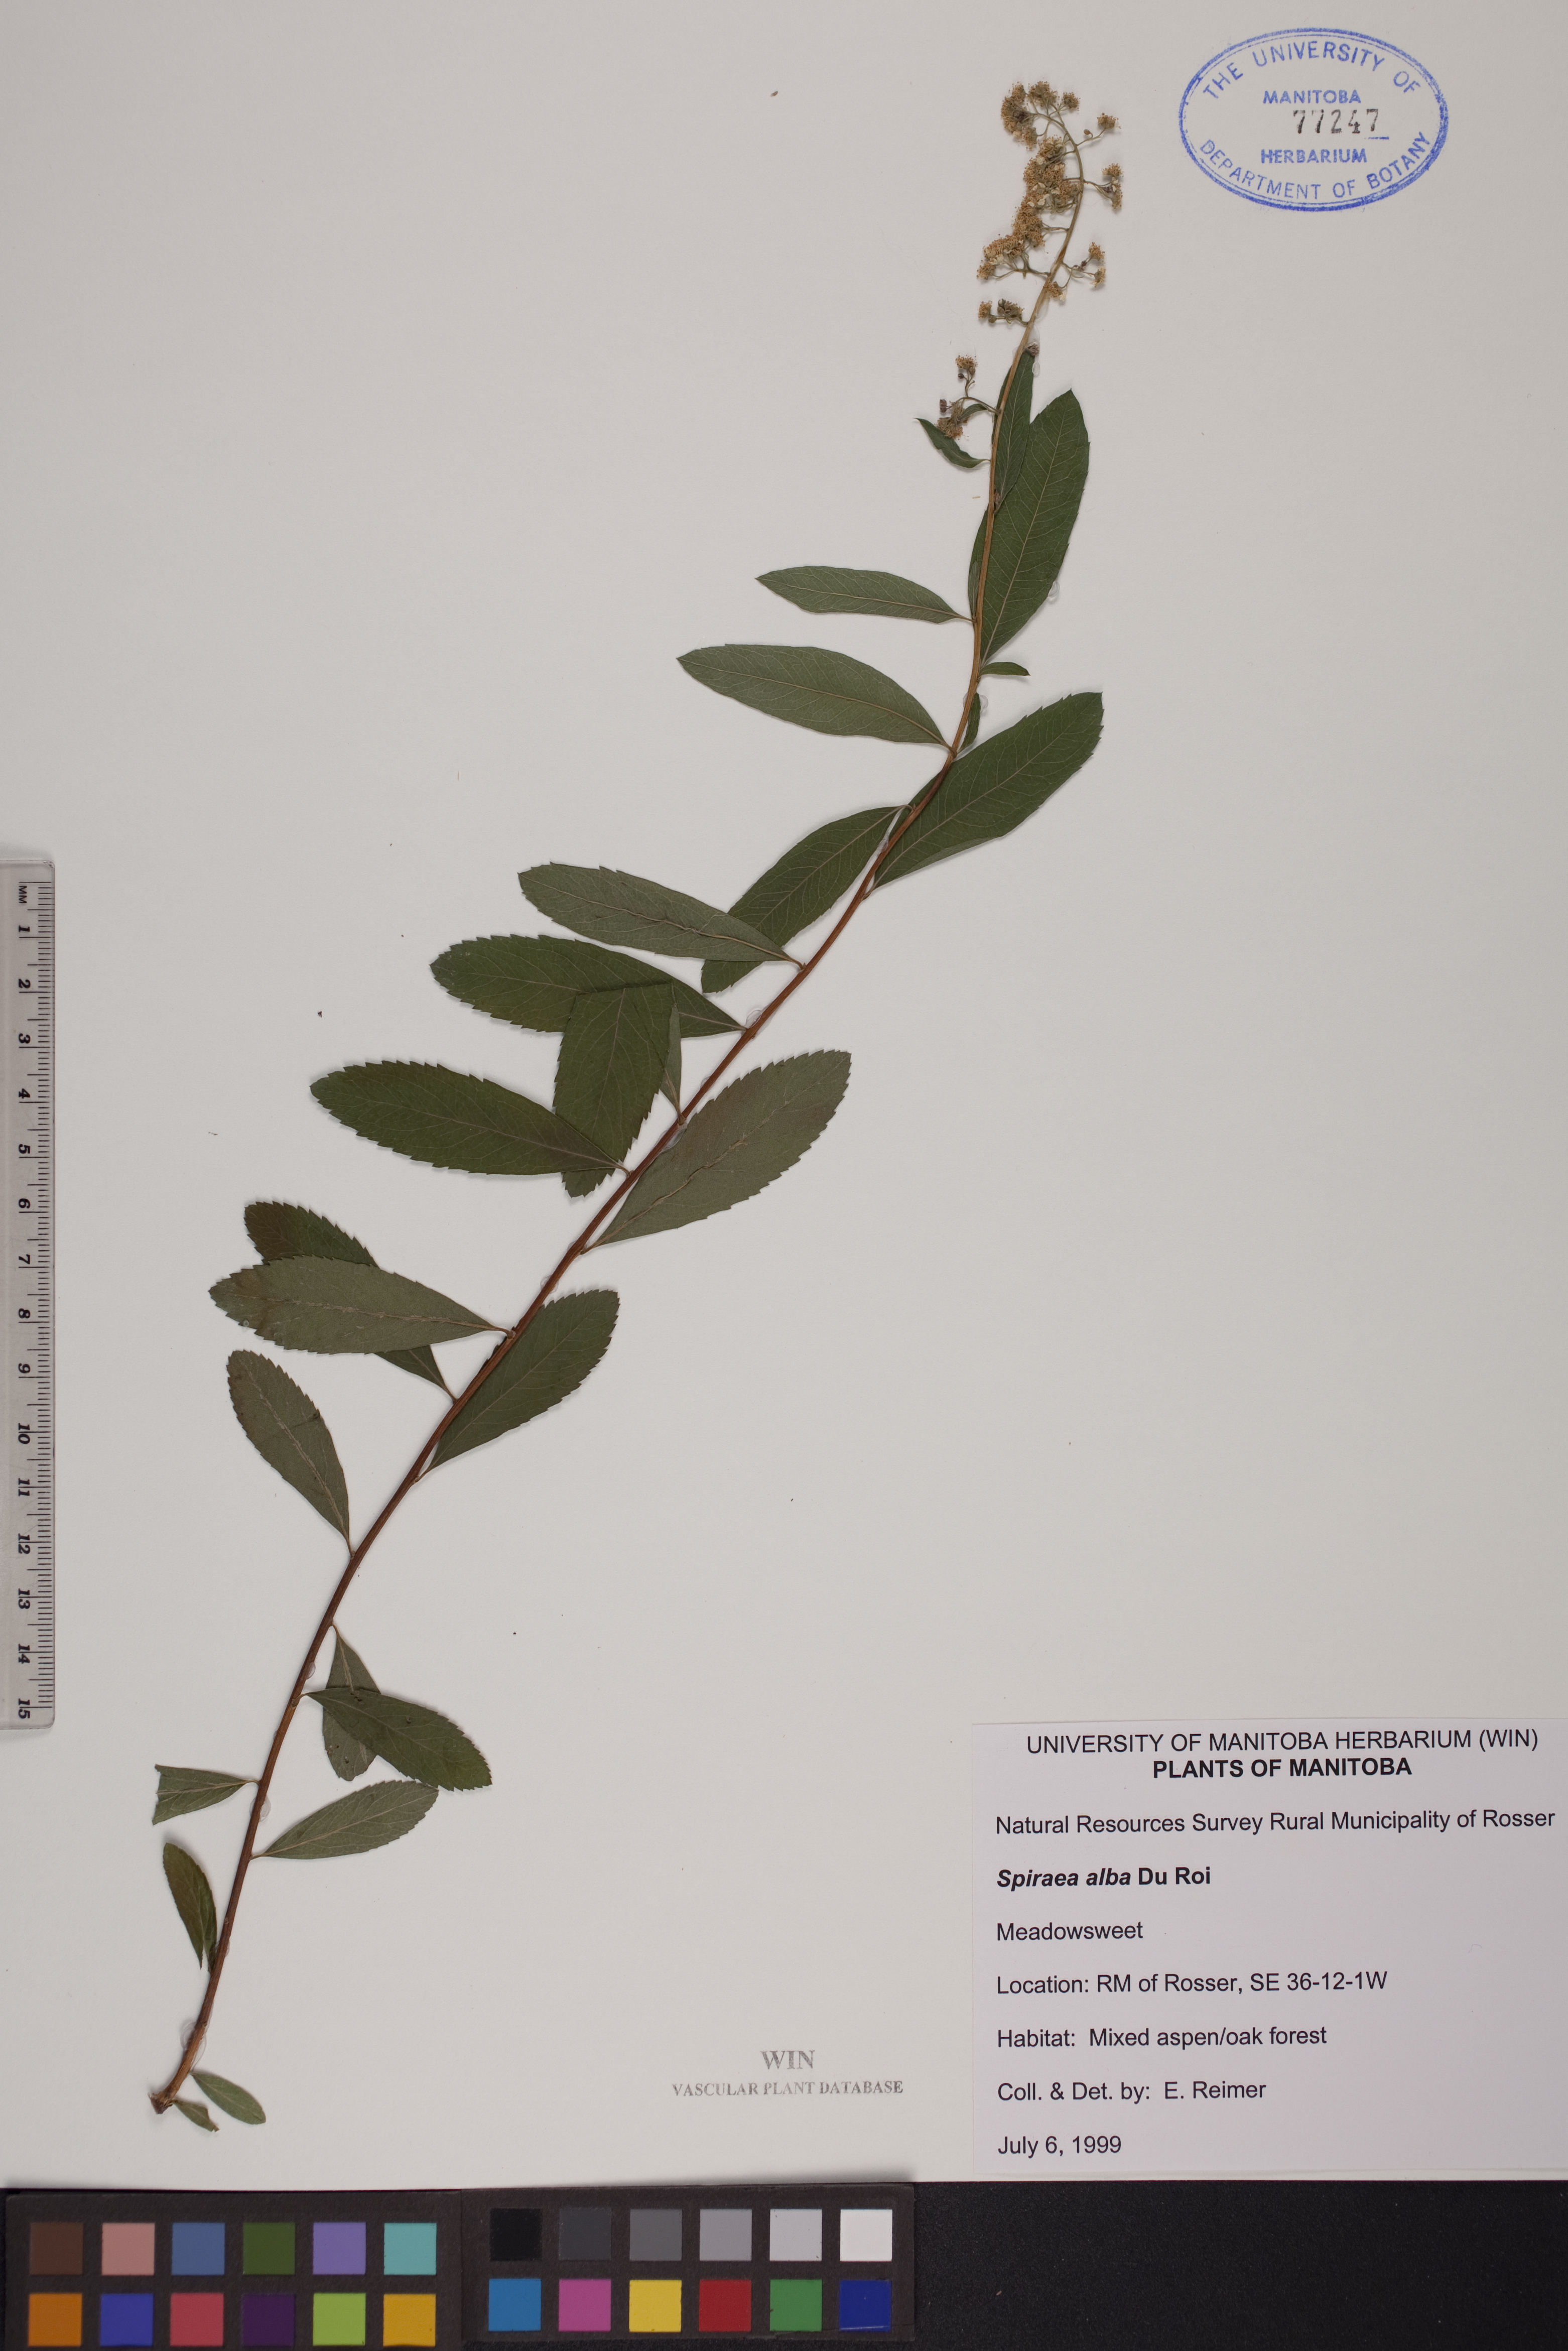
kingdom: Plantae
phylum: Tracheophyta
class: Magnoliopsida
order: Rosales
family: Rosaceae
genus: Spiraea
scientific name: Spiraea alba
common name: Pale bridewort
